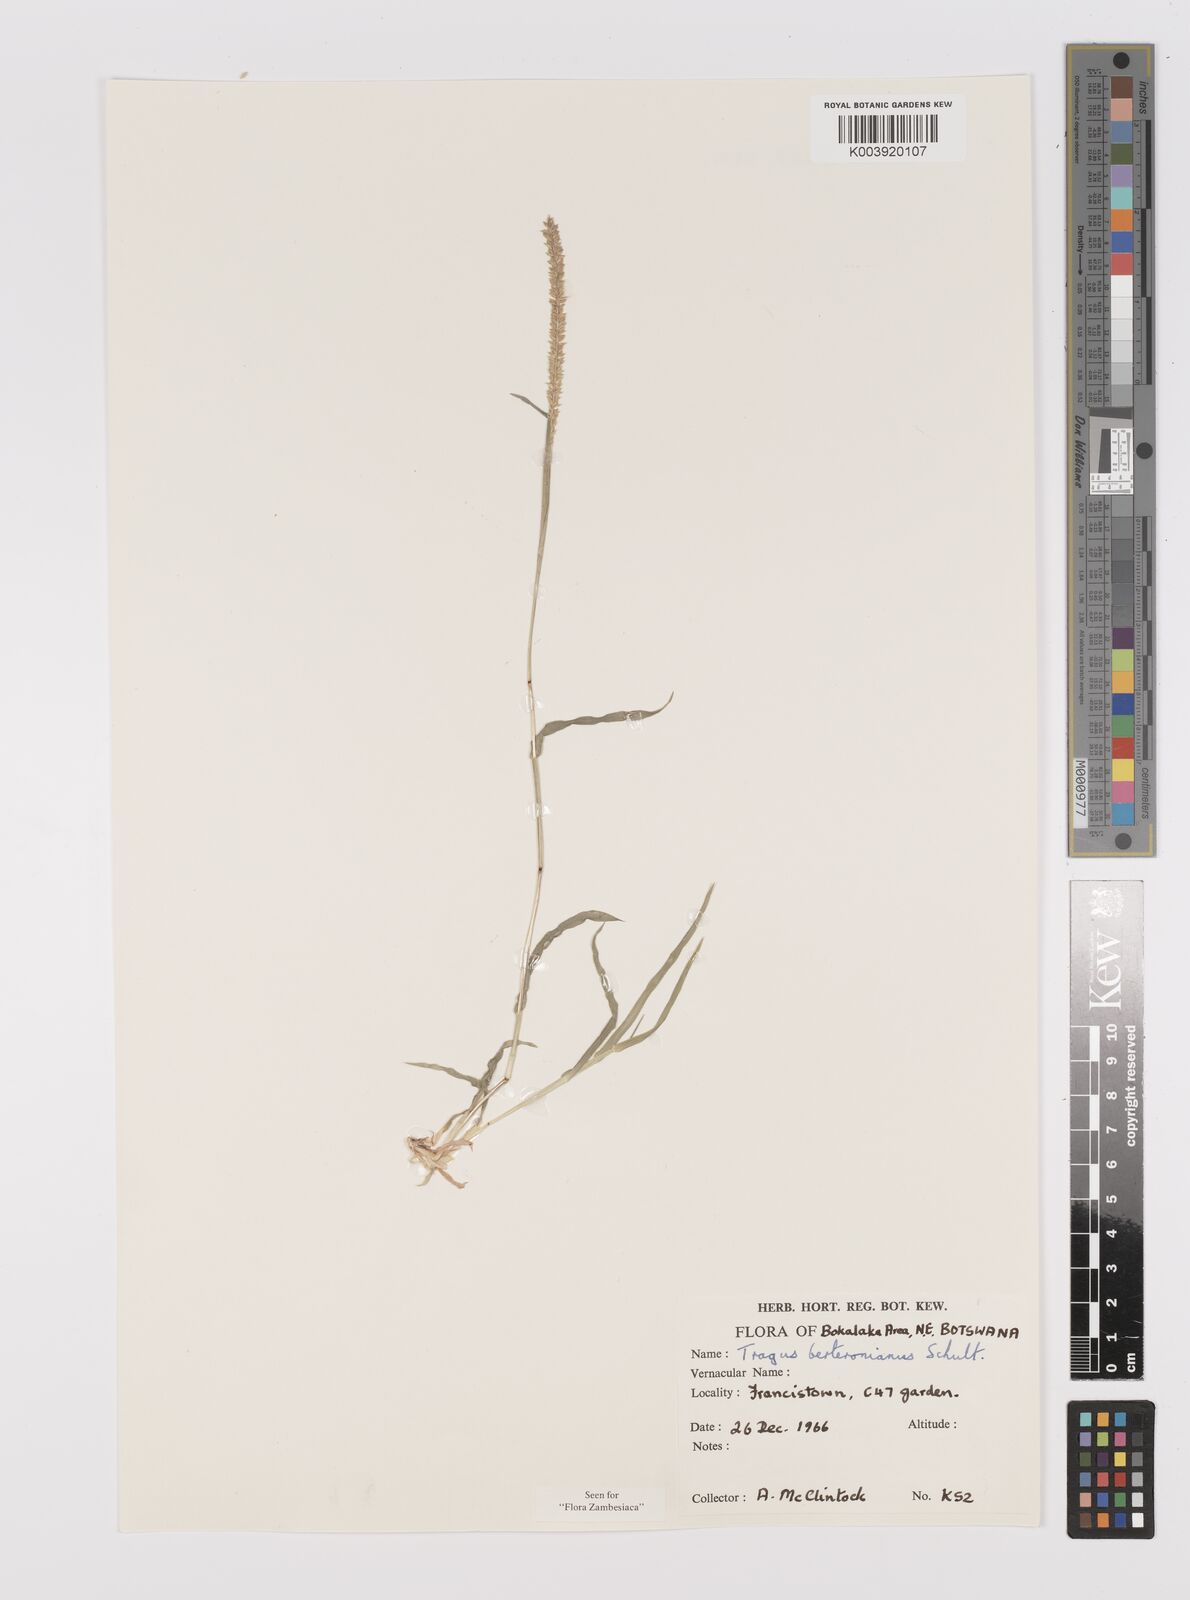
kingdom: Plantae
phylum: Tracheophyta
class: Liliopsida
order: Poales
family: Poaceae
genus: Tragus
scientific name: Tragus berteronianus
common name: African bur-grass
